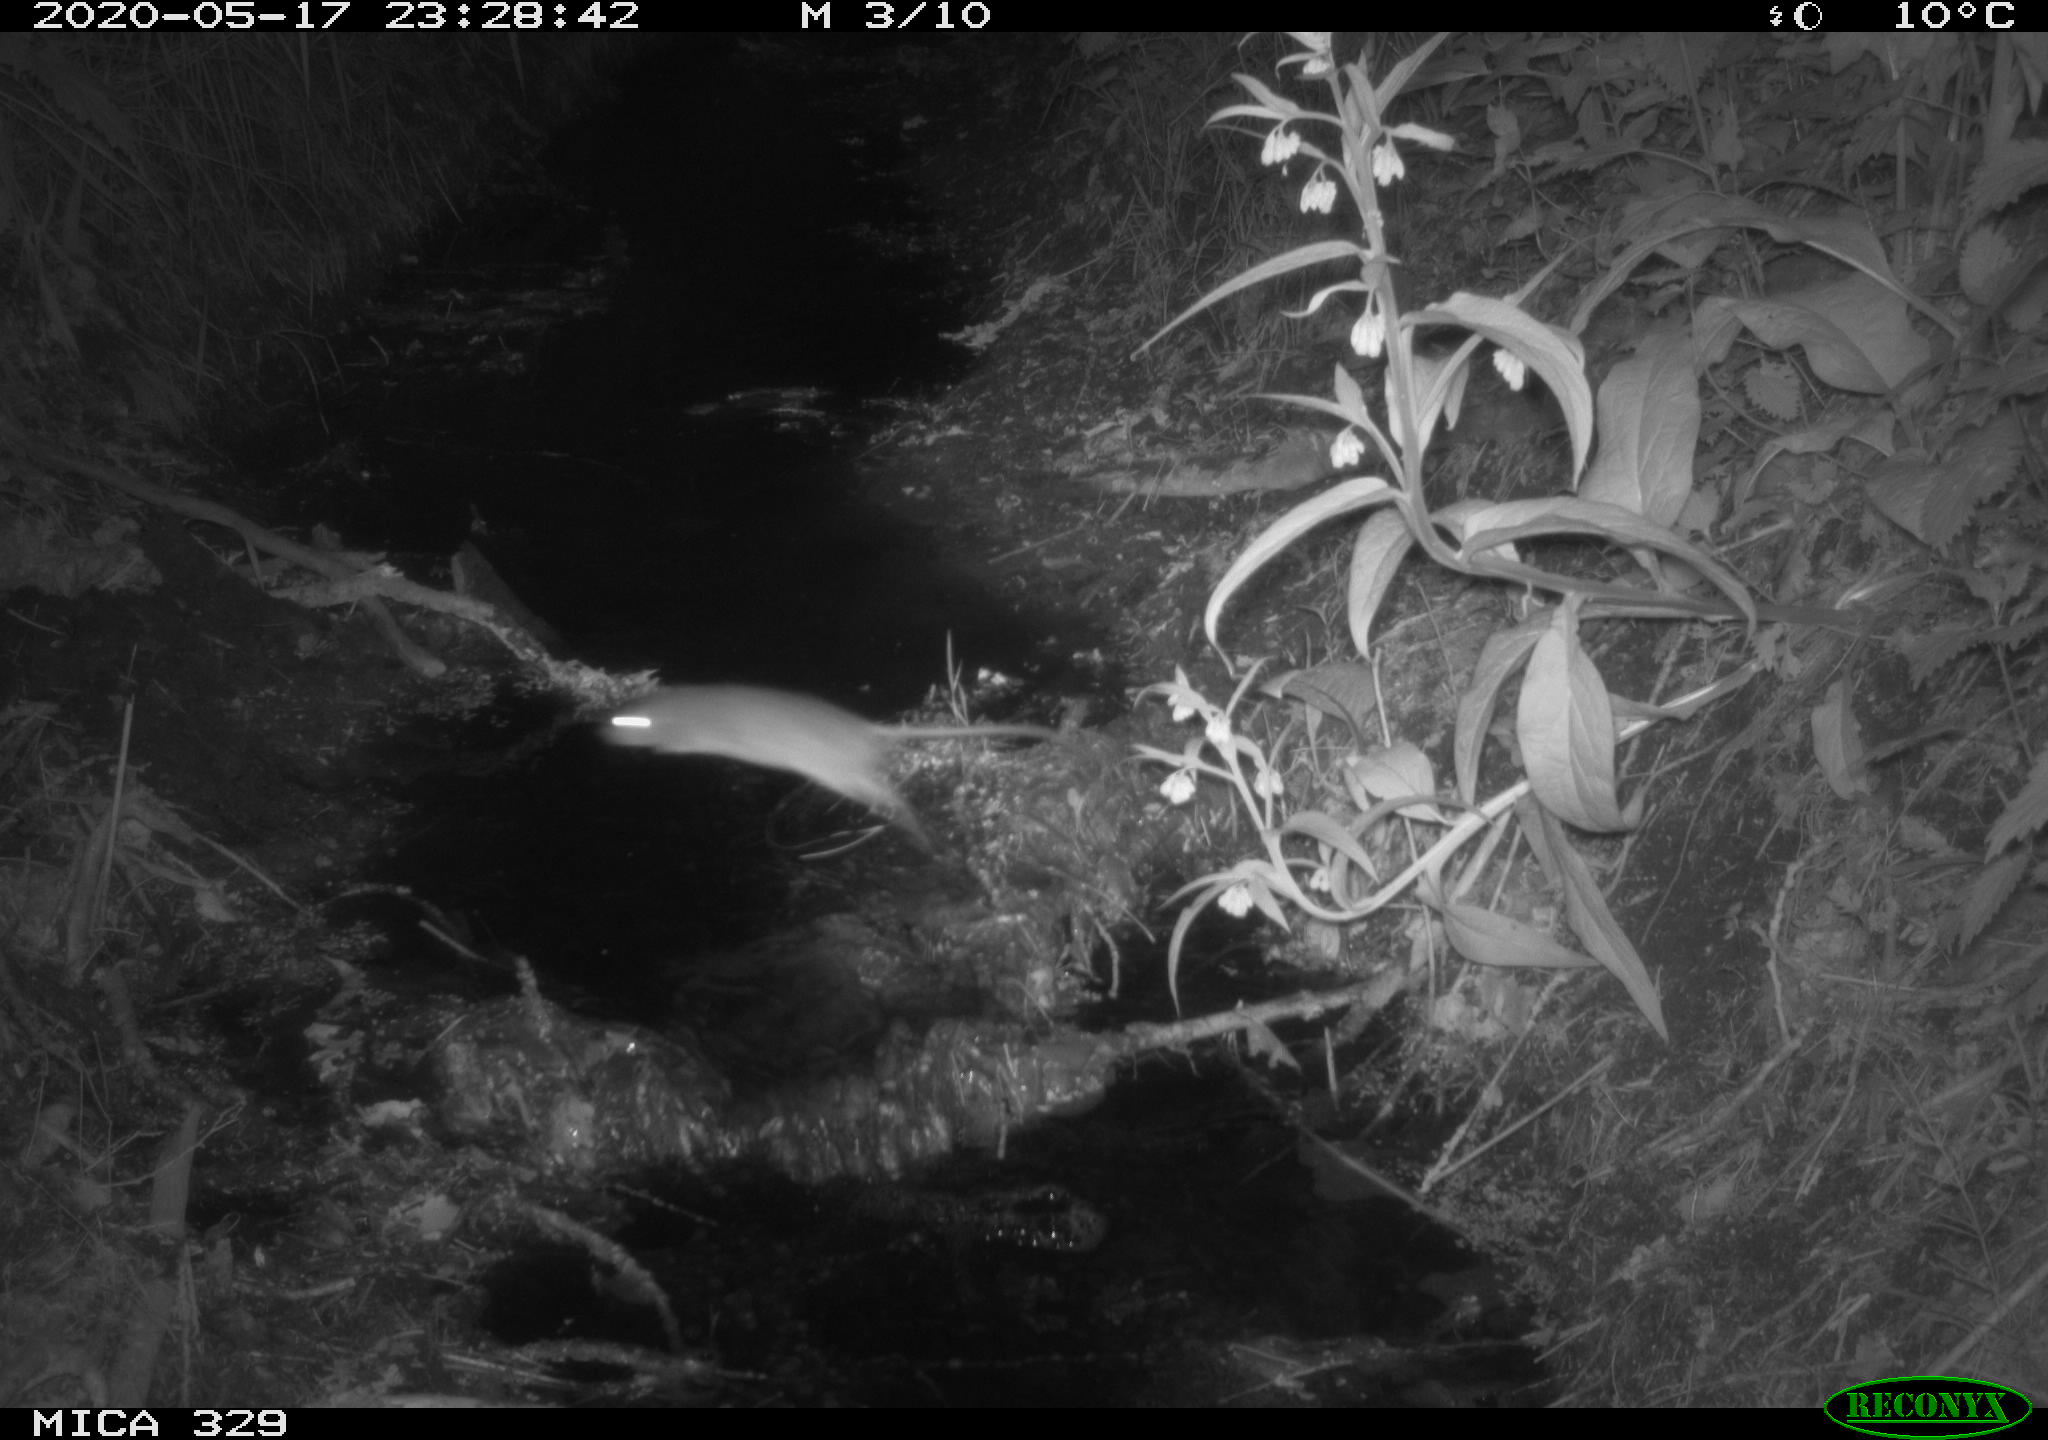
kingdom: Animalia
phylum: Chordata
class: Mammalia
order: Rodentia
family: Muridae
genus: Rattus
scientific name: Rattus norvegicus
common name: Brown rat
